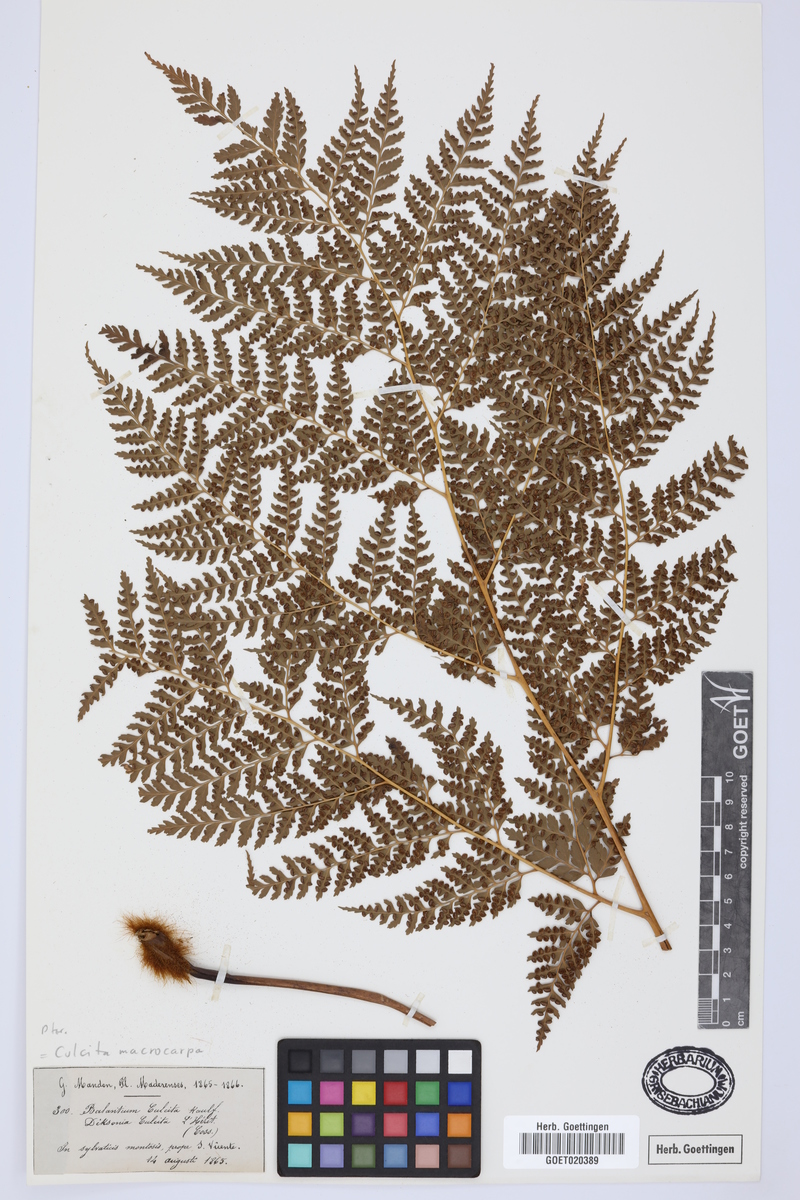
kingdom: Plantae
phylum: Tracheophyta
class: Polypodiopsida
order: Cyatheales
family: Culcitaceae
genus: Culcita
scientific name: Culcita macrocarpa
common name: Woolly tree fern
